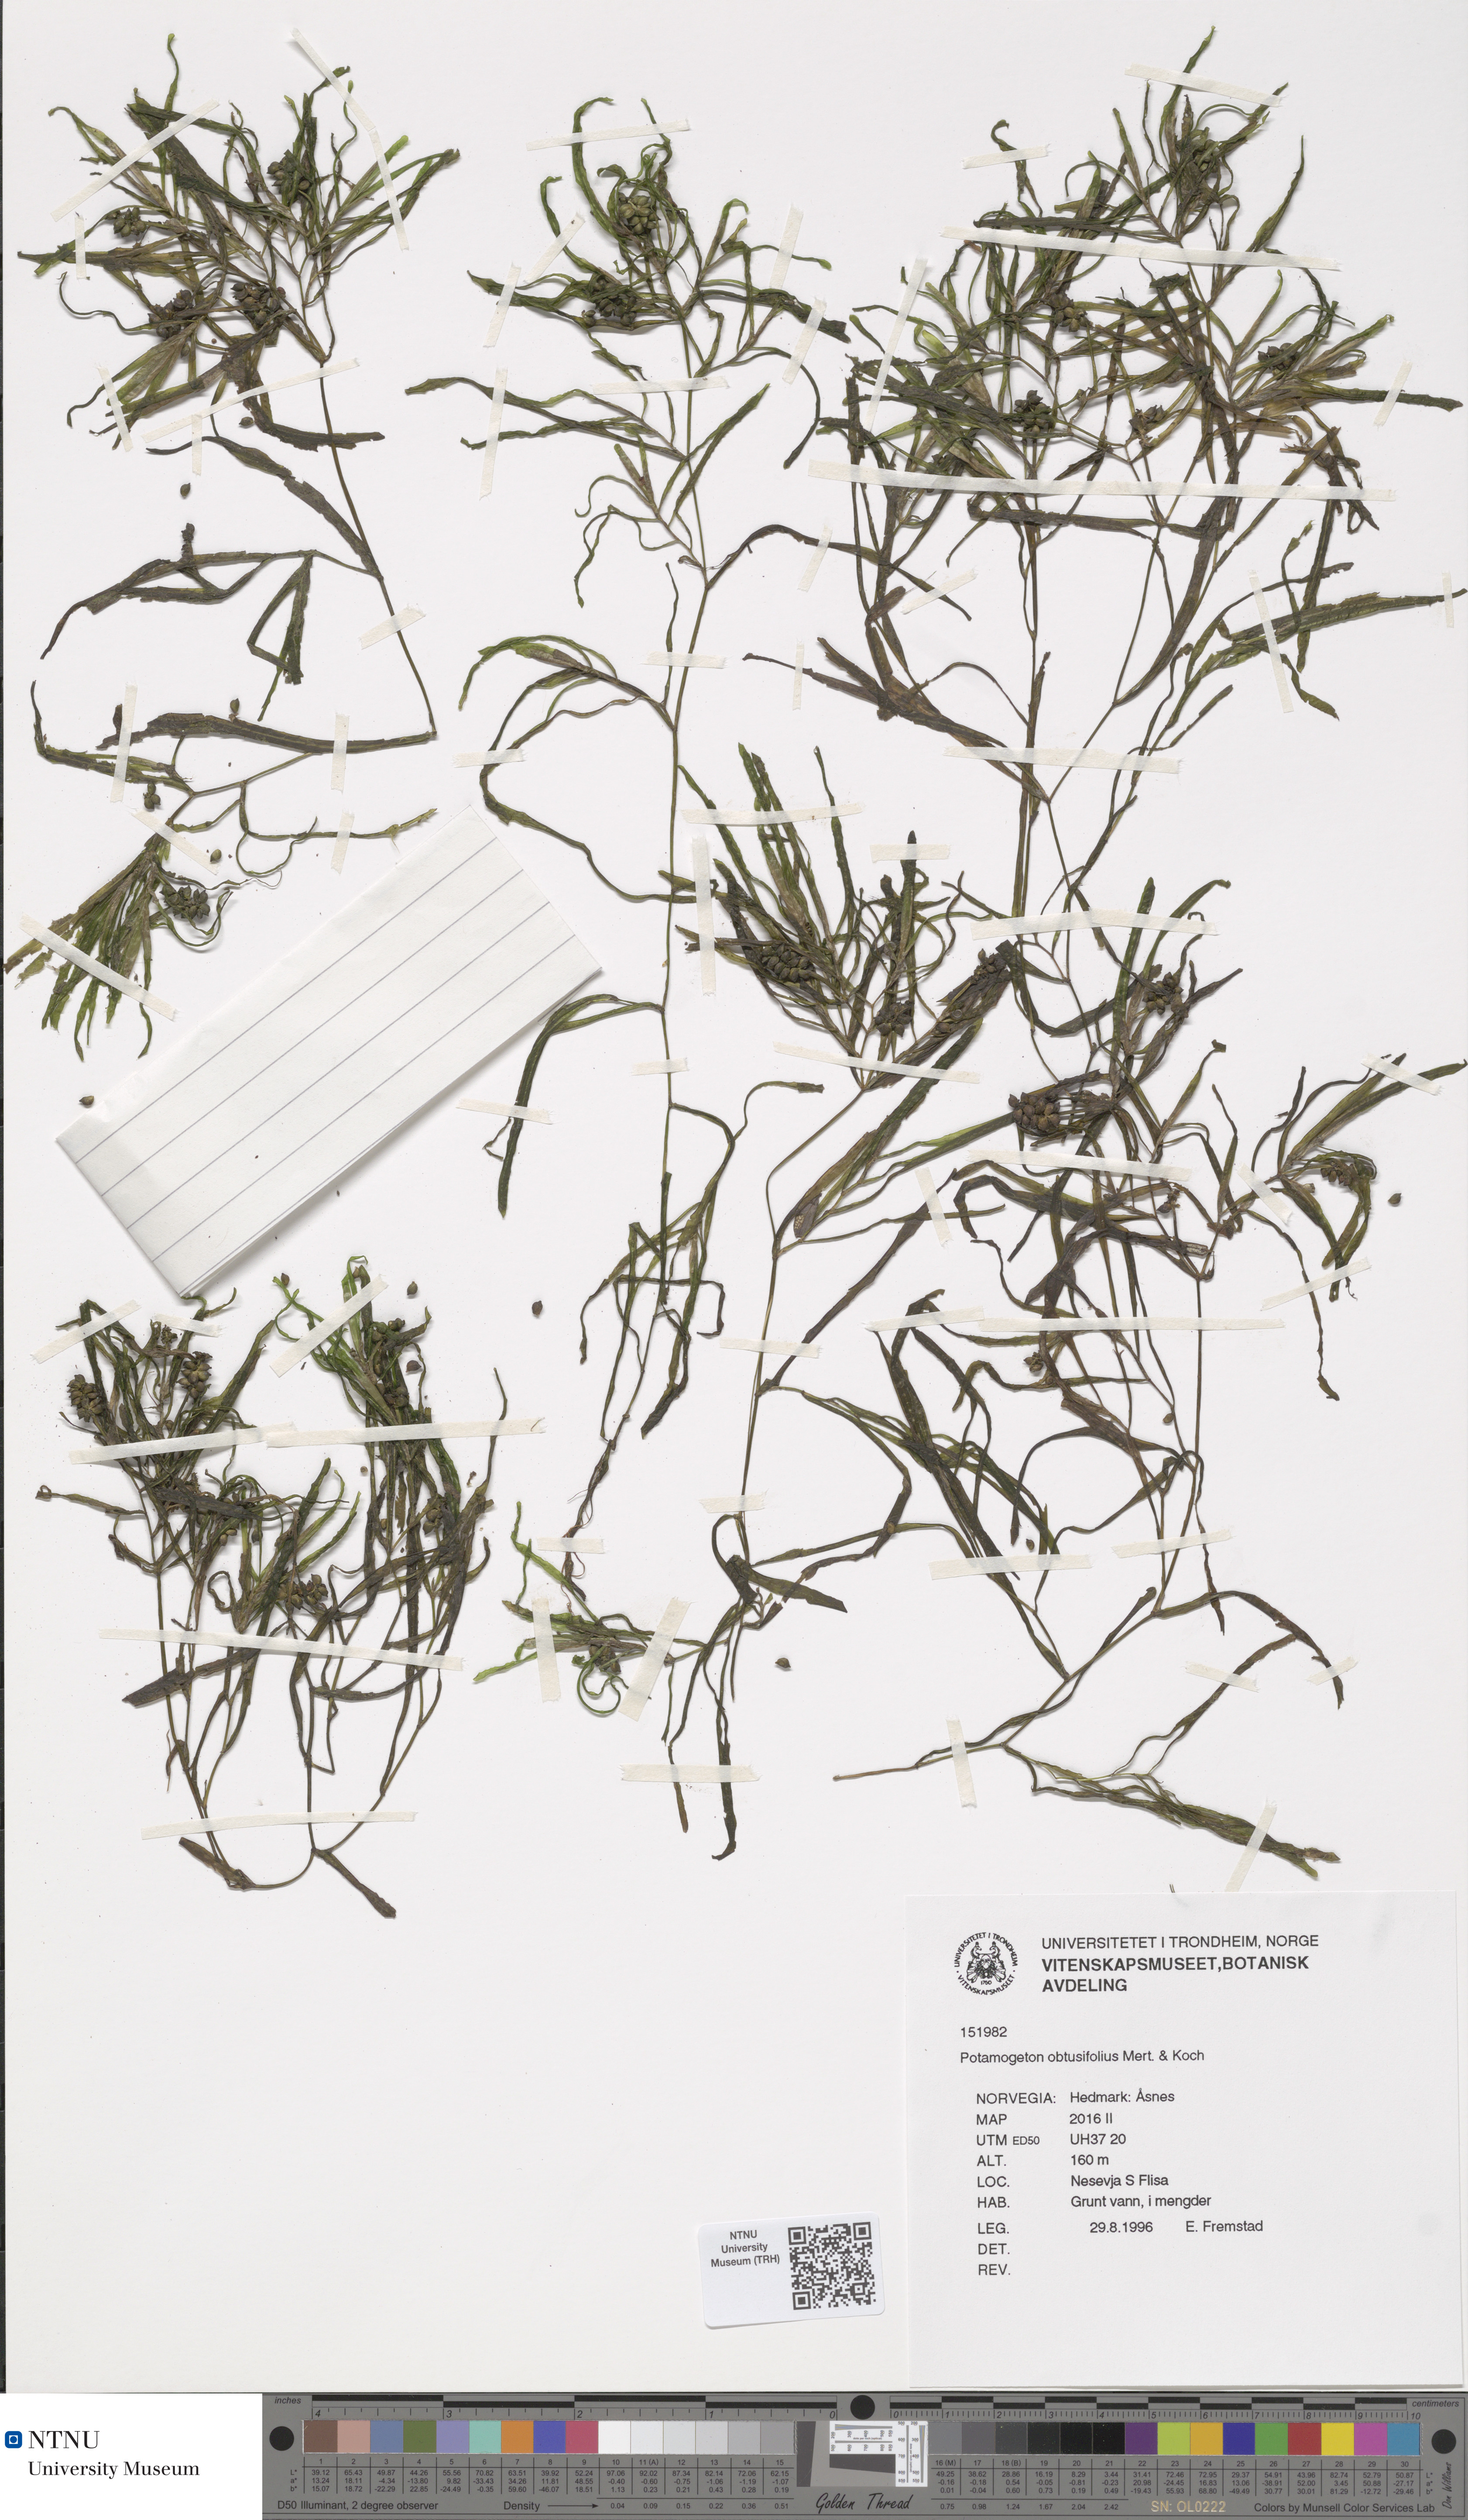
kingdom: Plantae
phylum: Tracheophyta
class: Liliopsida
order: Alismatales
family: Potamogetonaceae
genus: Potamogeton
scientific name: Potamogeton obtusifolius
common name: Blunt-leaved pondweed
